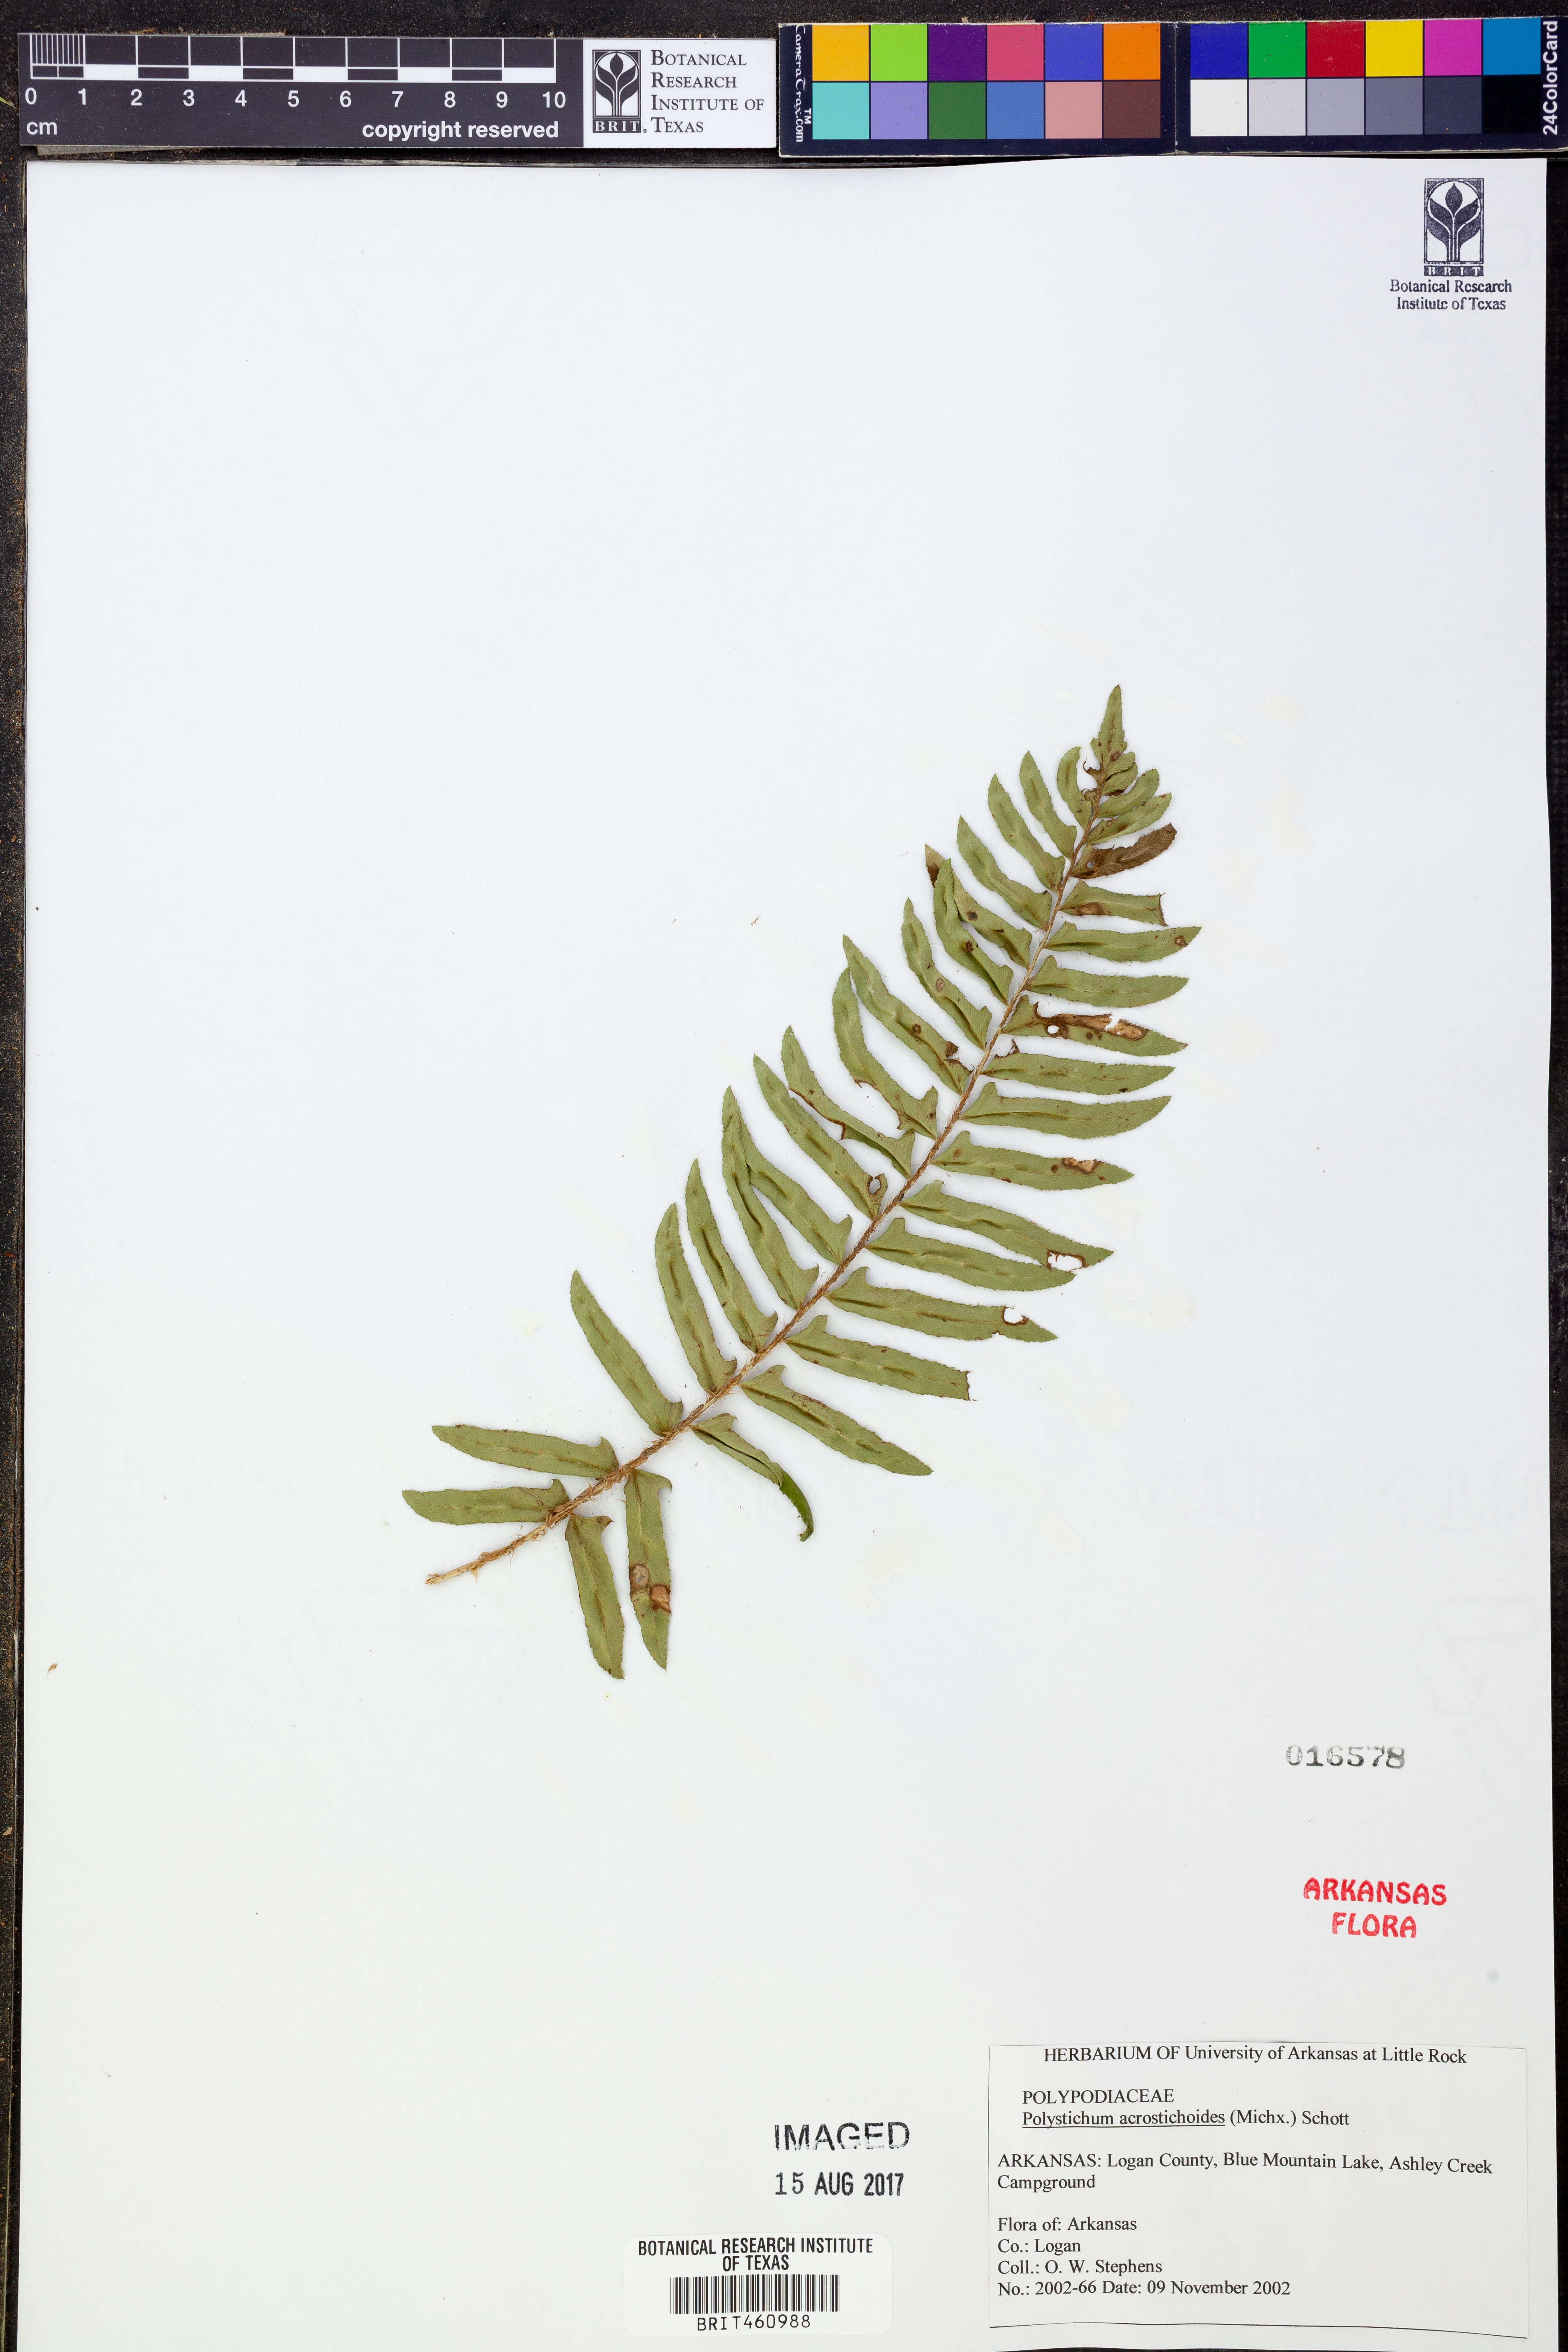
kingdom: Plantae
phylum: Tracheophyta
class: Polypodiopsida
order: Polypodiales
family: Dryopteridaceae
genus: Polystichum
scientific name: Polystichum acrostichoides
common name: Christmas fern
